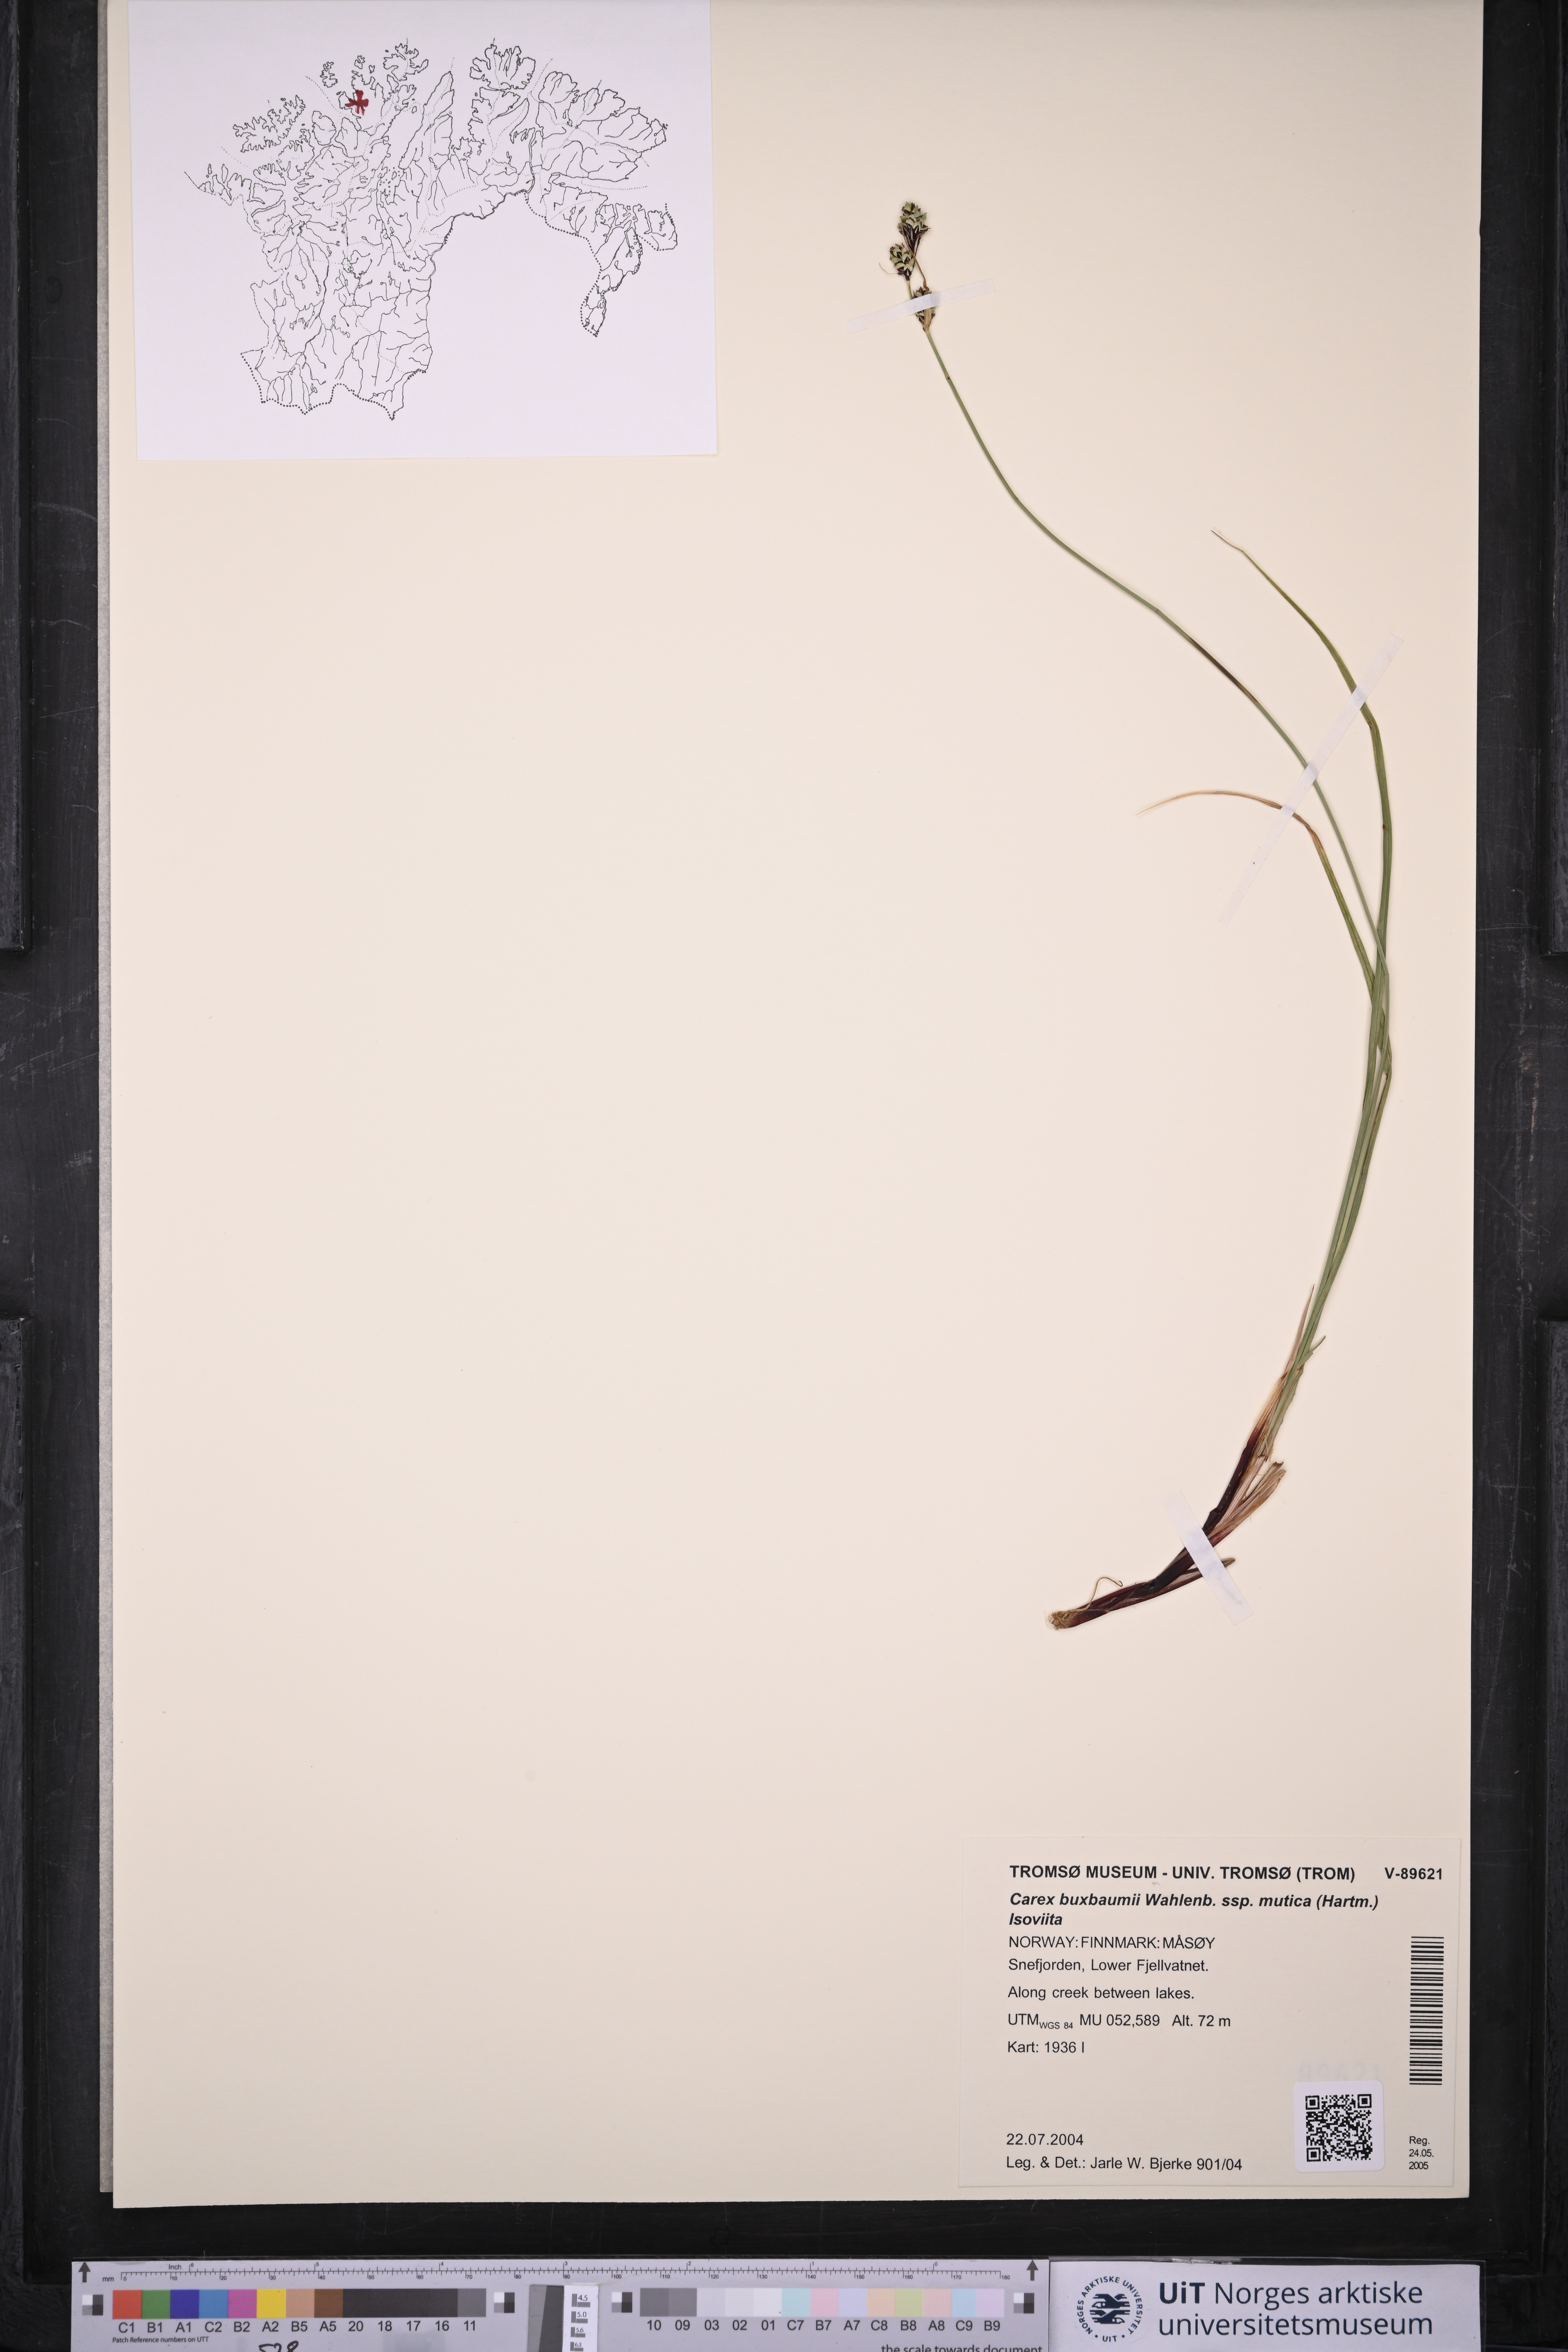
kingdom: Plantae
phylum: Tracheophyta
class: Liliopsida
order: Poales
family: Cyperaceae
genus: Carex
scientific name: Carex adelostoma
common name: Circumpolar sedge
